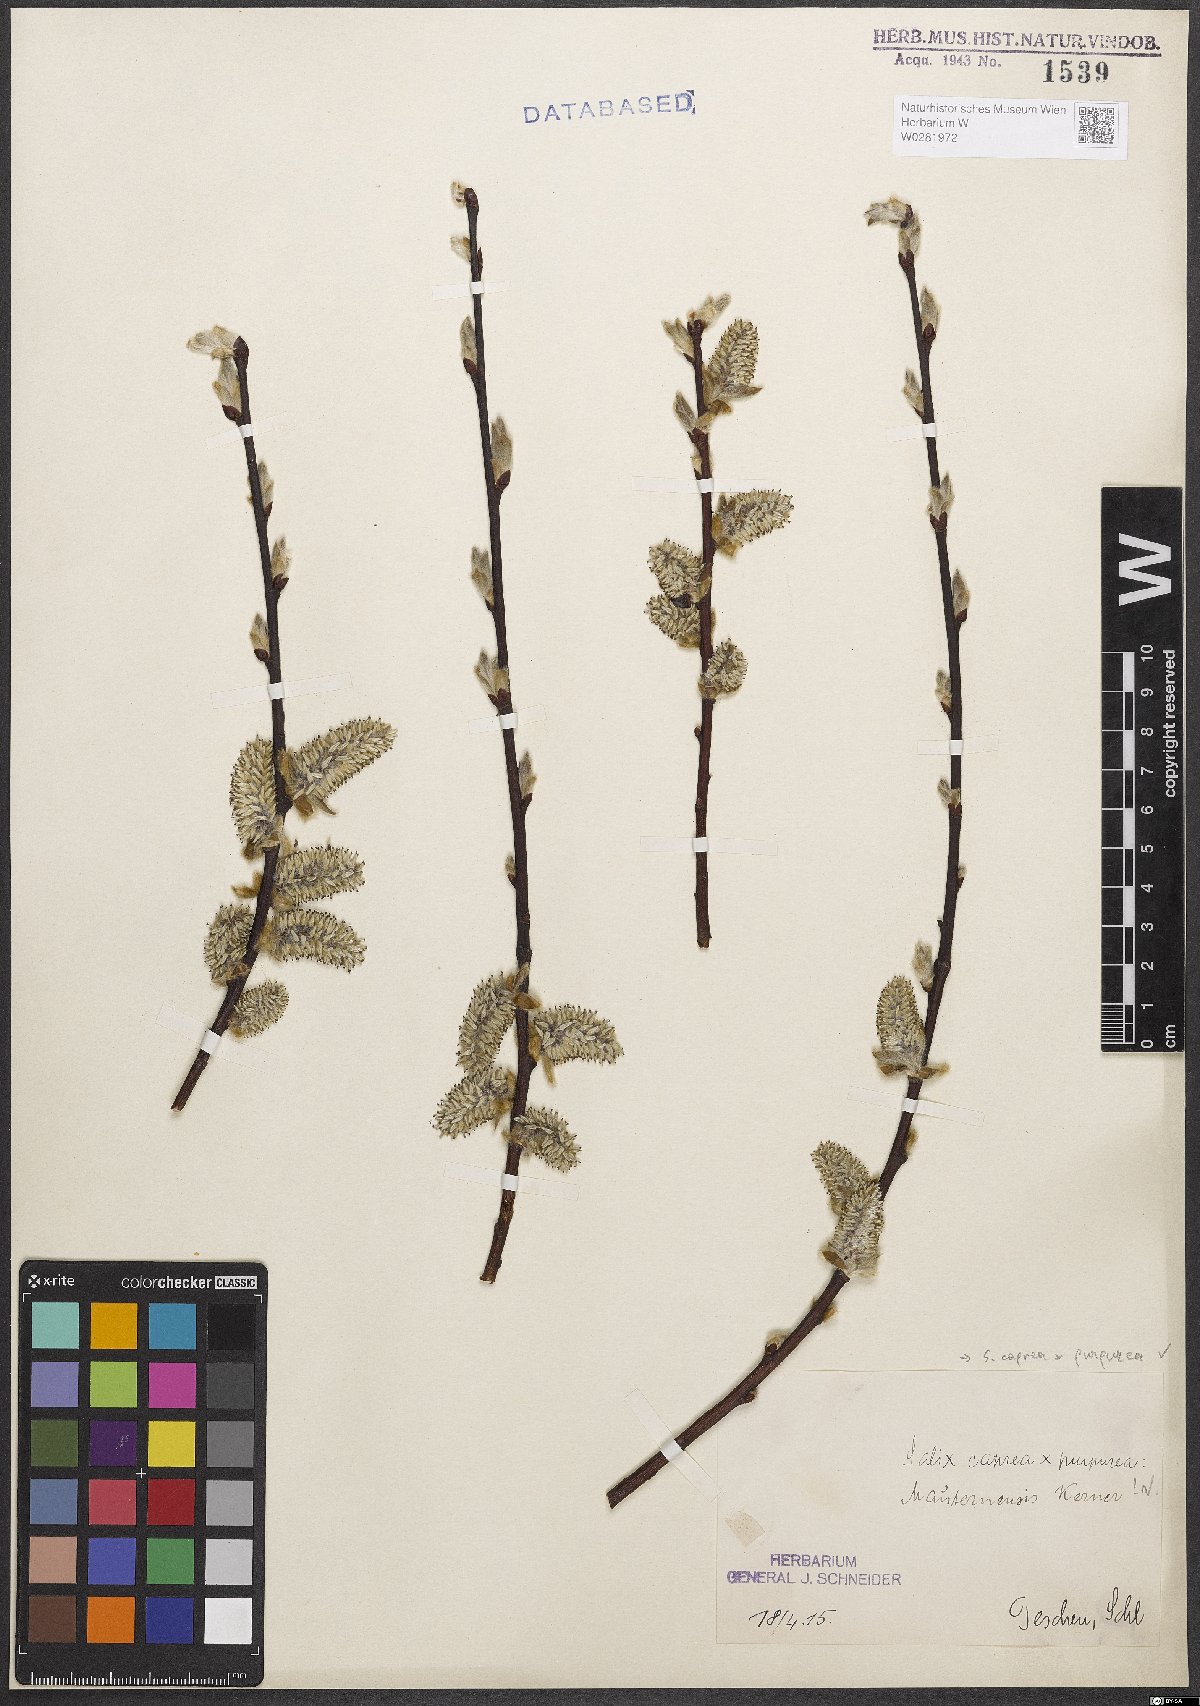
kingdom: Plantae
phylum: Tracheophyta
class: Magnoliopsida
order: Malpighiales
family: Salicaceae
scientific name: Salicaceae
